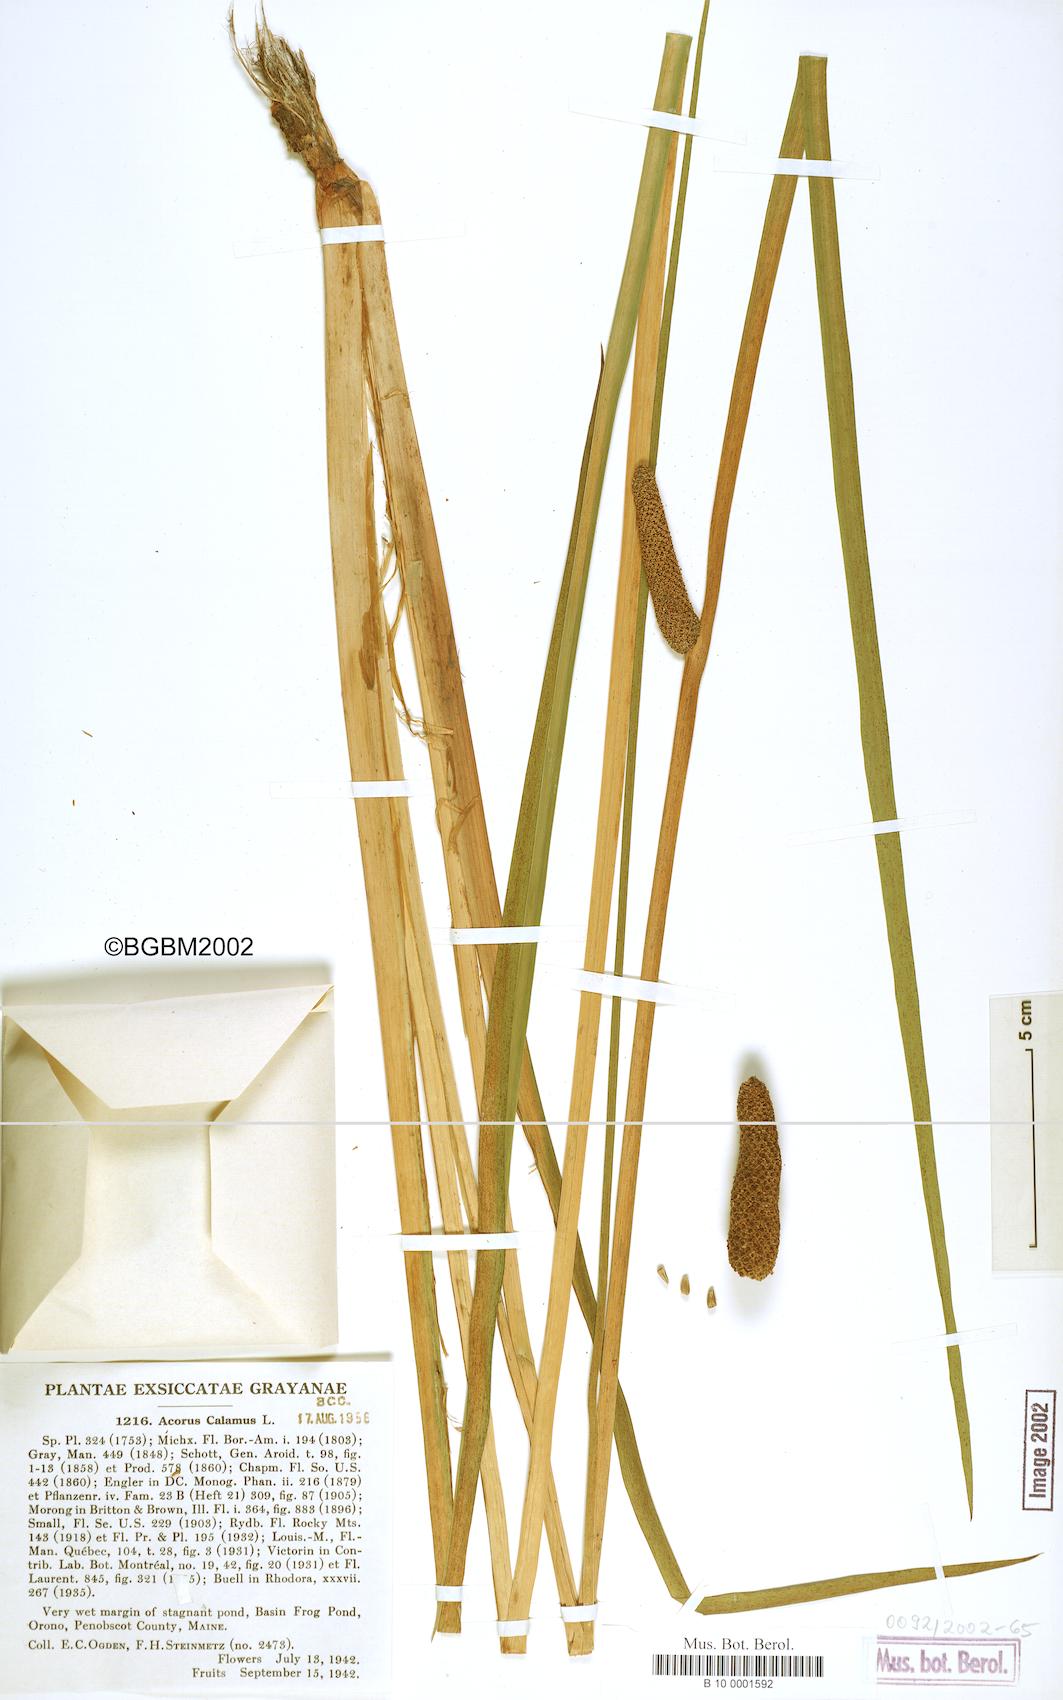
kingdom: Plantae
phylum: Tracheophyta
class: Liliopsida
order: Acorales
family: Acoraceae
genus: Acorus
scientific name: Acorus calamus
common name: Sweet-flag
